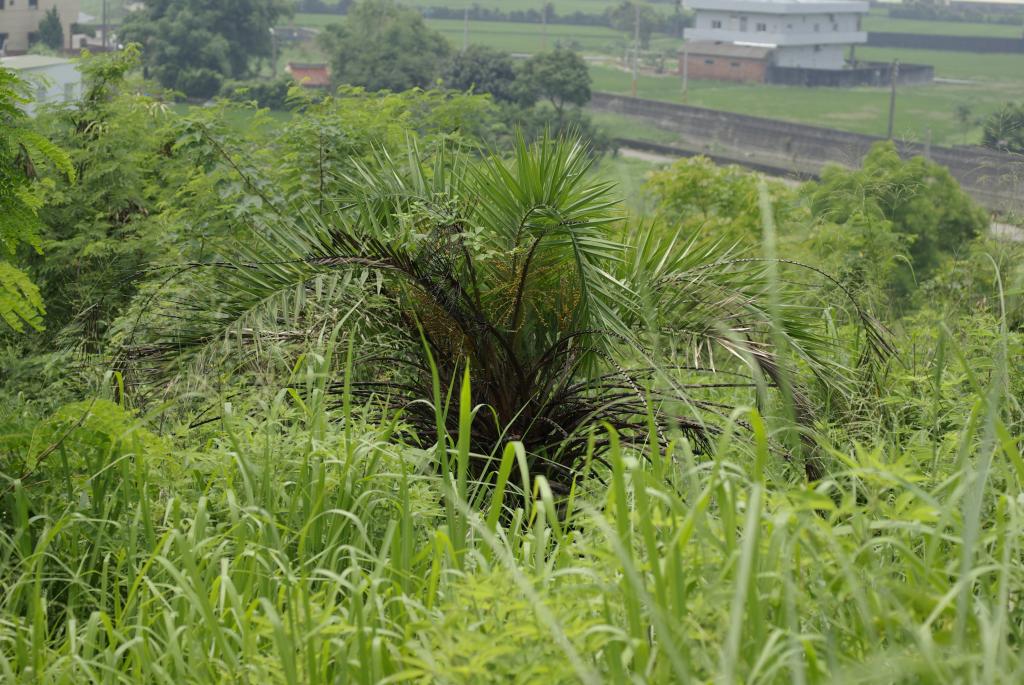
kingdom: Plantae
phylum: Tracheophyta
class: Liliopsida
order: Arecales
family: Arecaceae
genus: Phoenix
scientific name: Phoenix loureiroi
